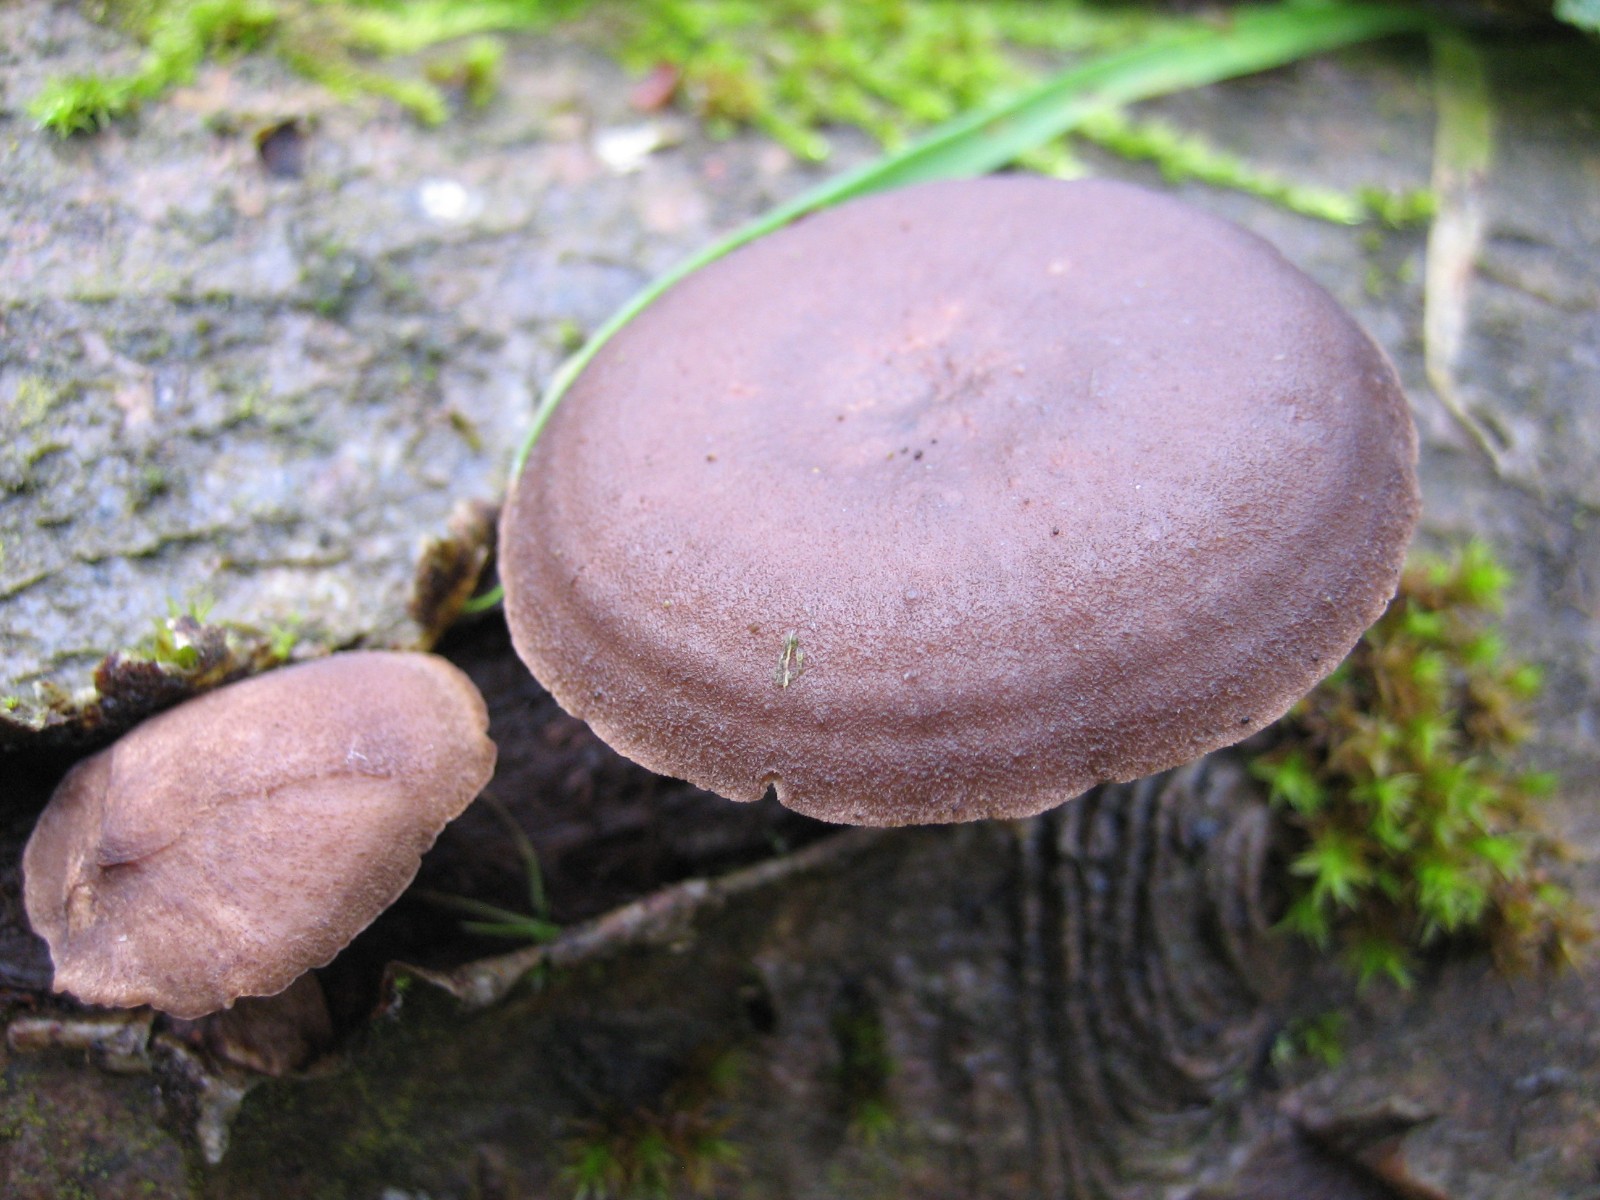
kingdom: Fungi
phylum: Basidiomycota
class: Agaricomycetes
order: Polyporales
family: Polyporaceae
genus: Lentinus
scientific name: Lentinus brumalis
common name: vinter-stilkporesvamp
